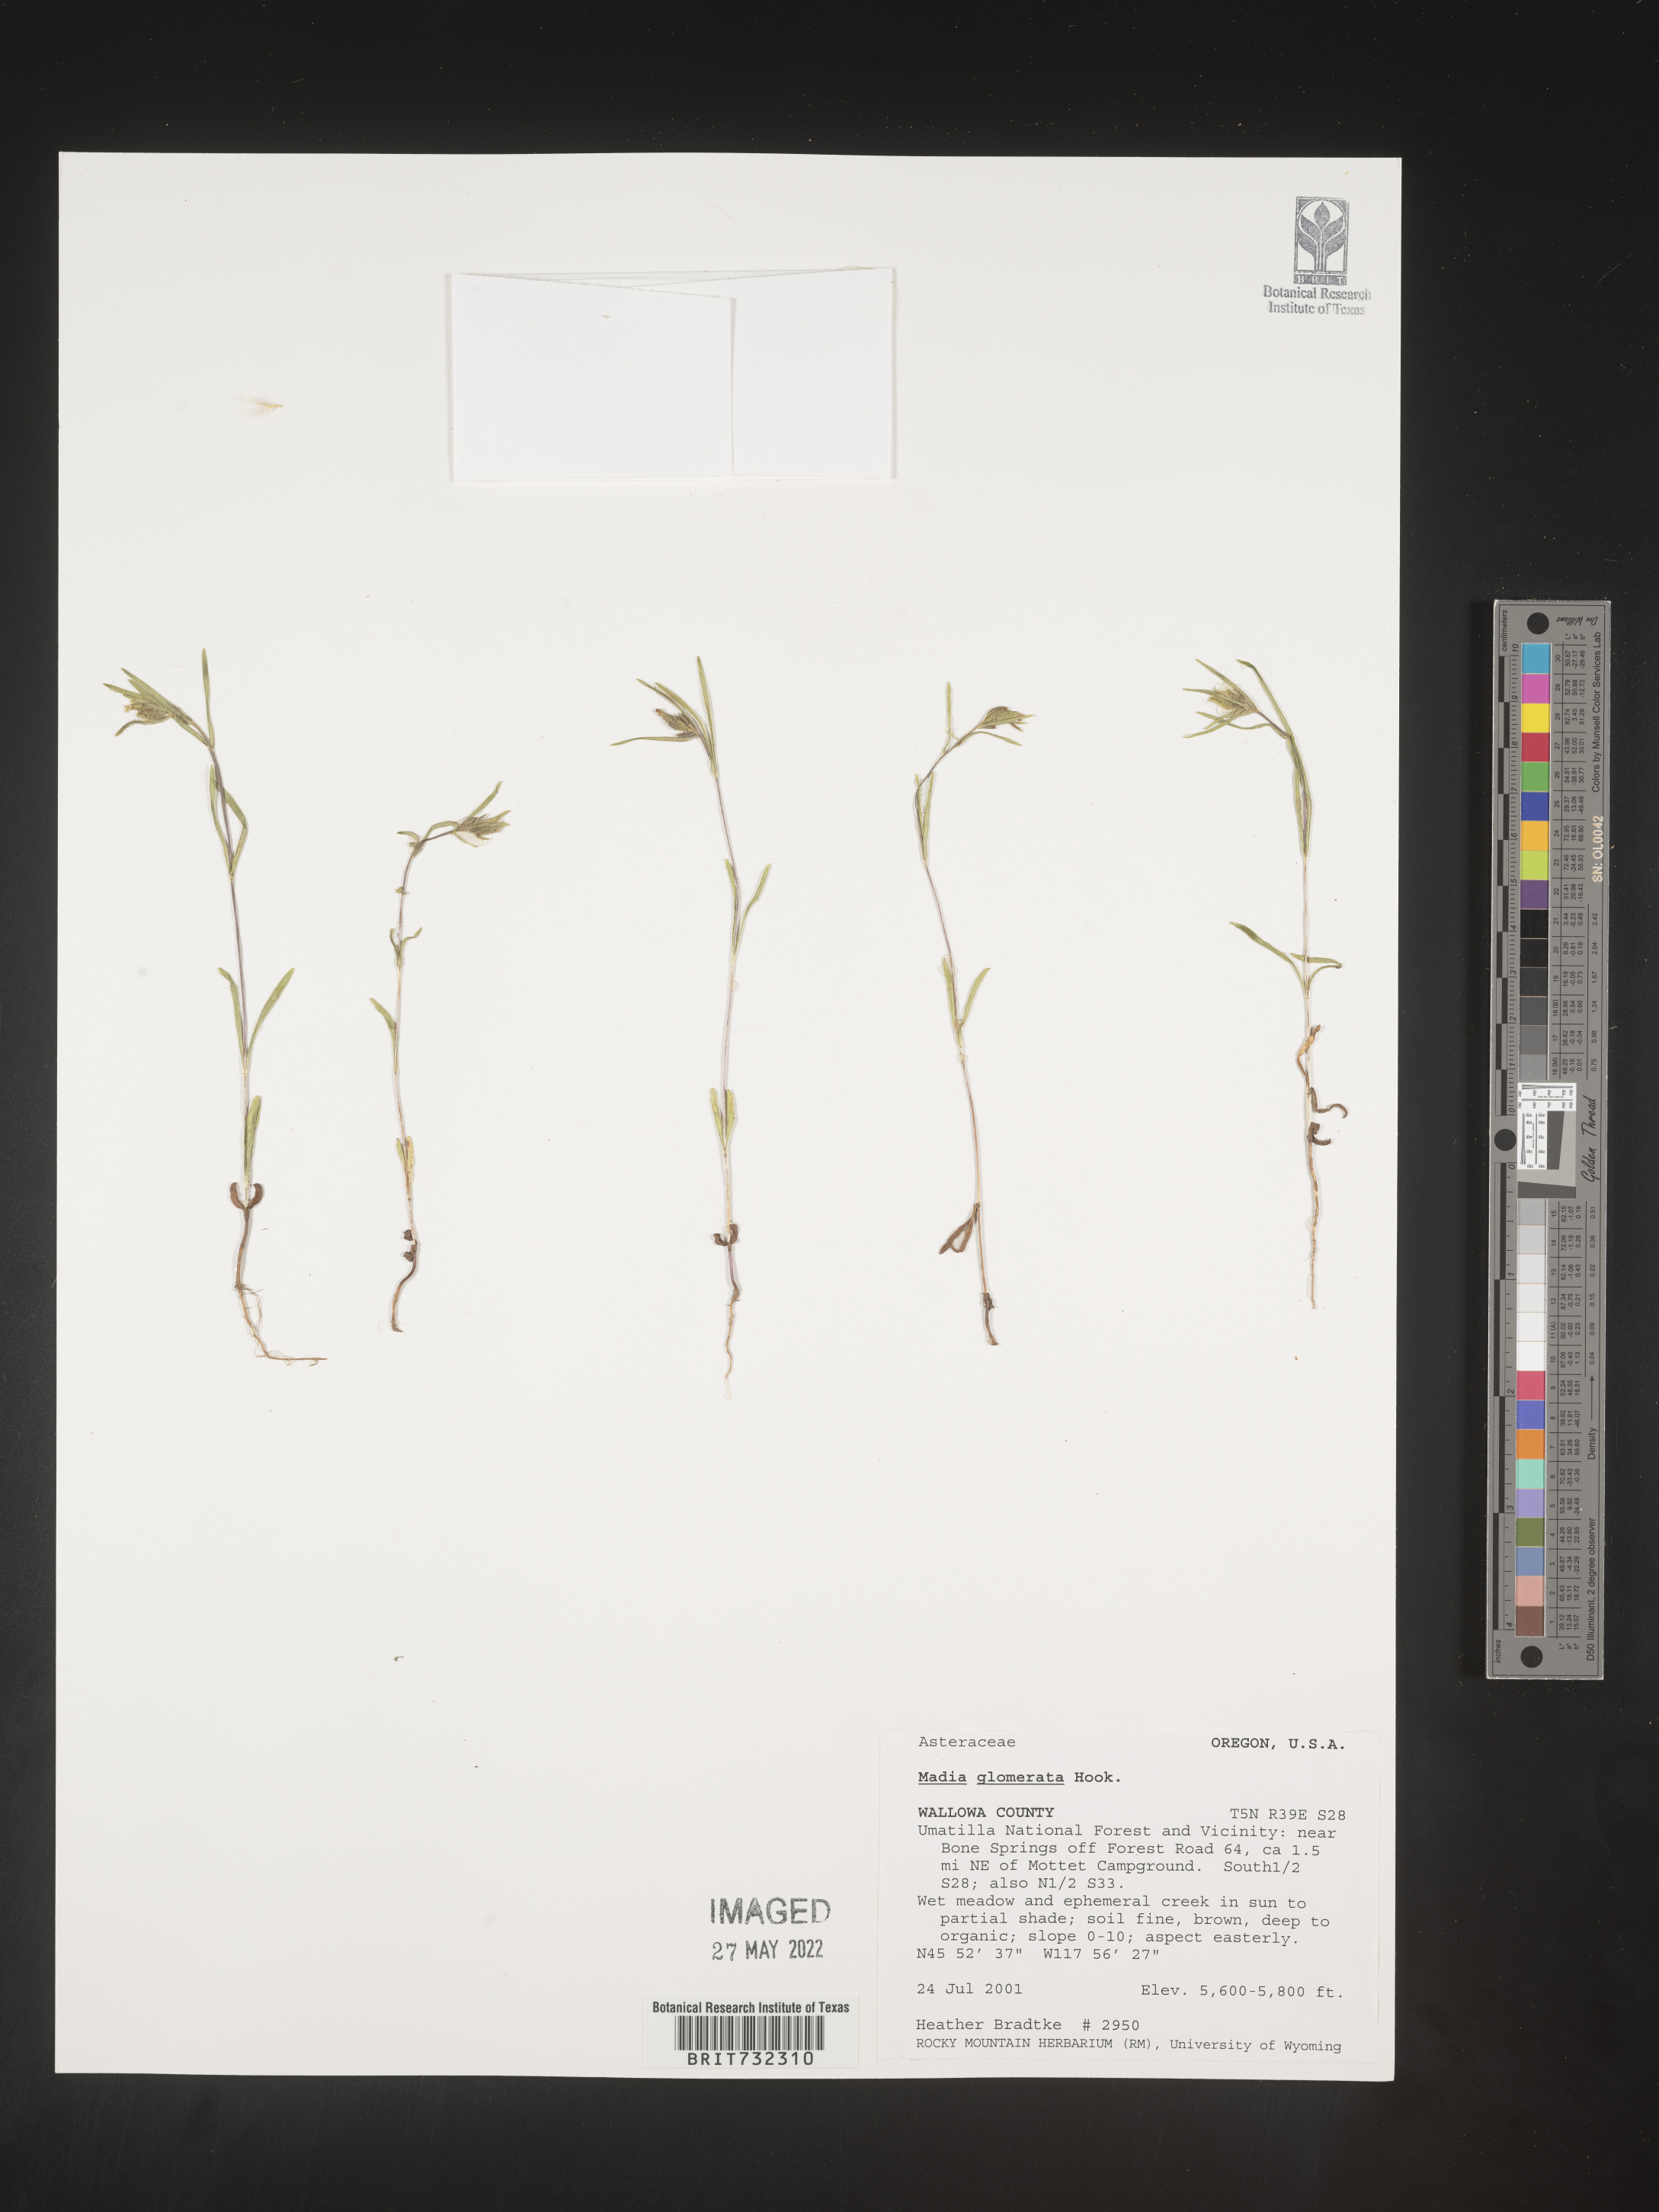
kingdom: Plantae
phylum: Tracheophyta
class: Magnoliopsida
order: Asterales
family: Asteraceae
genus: Madia
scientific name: Madia glomerata
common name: Mountain tarweed
